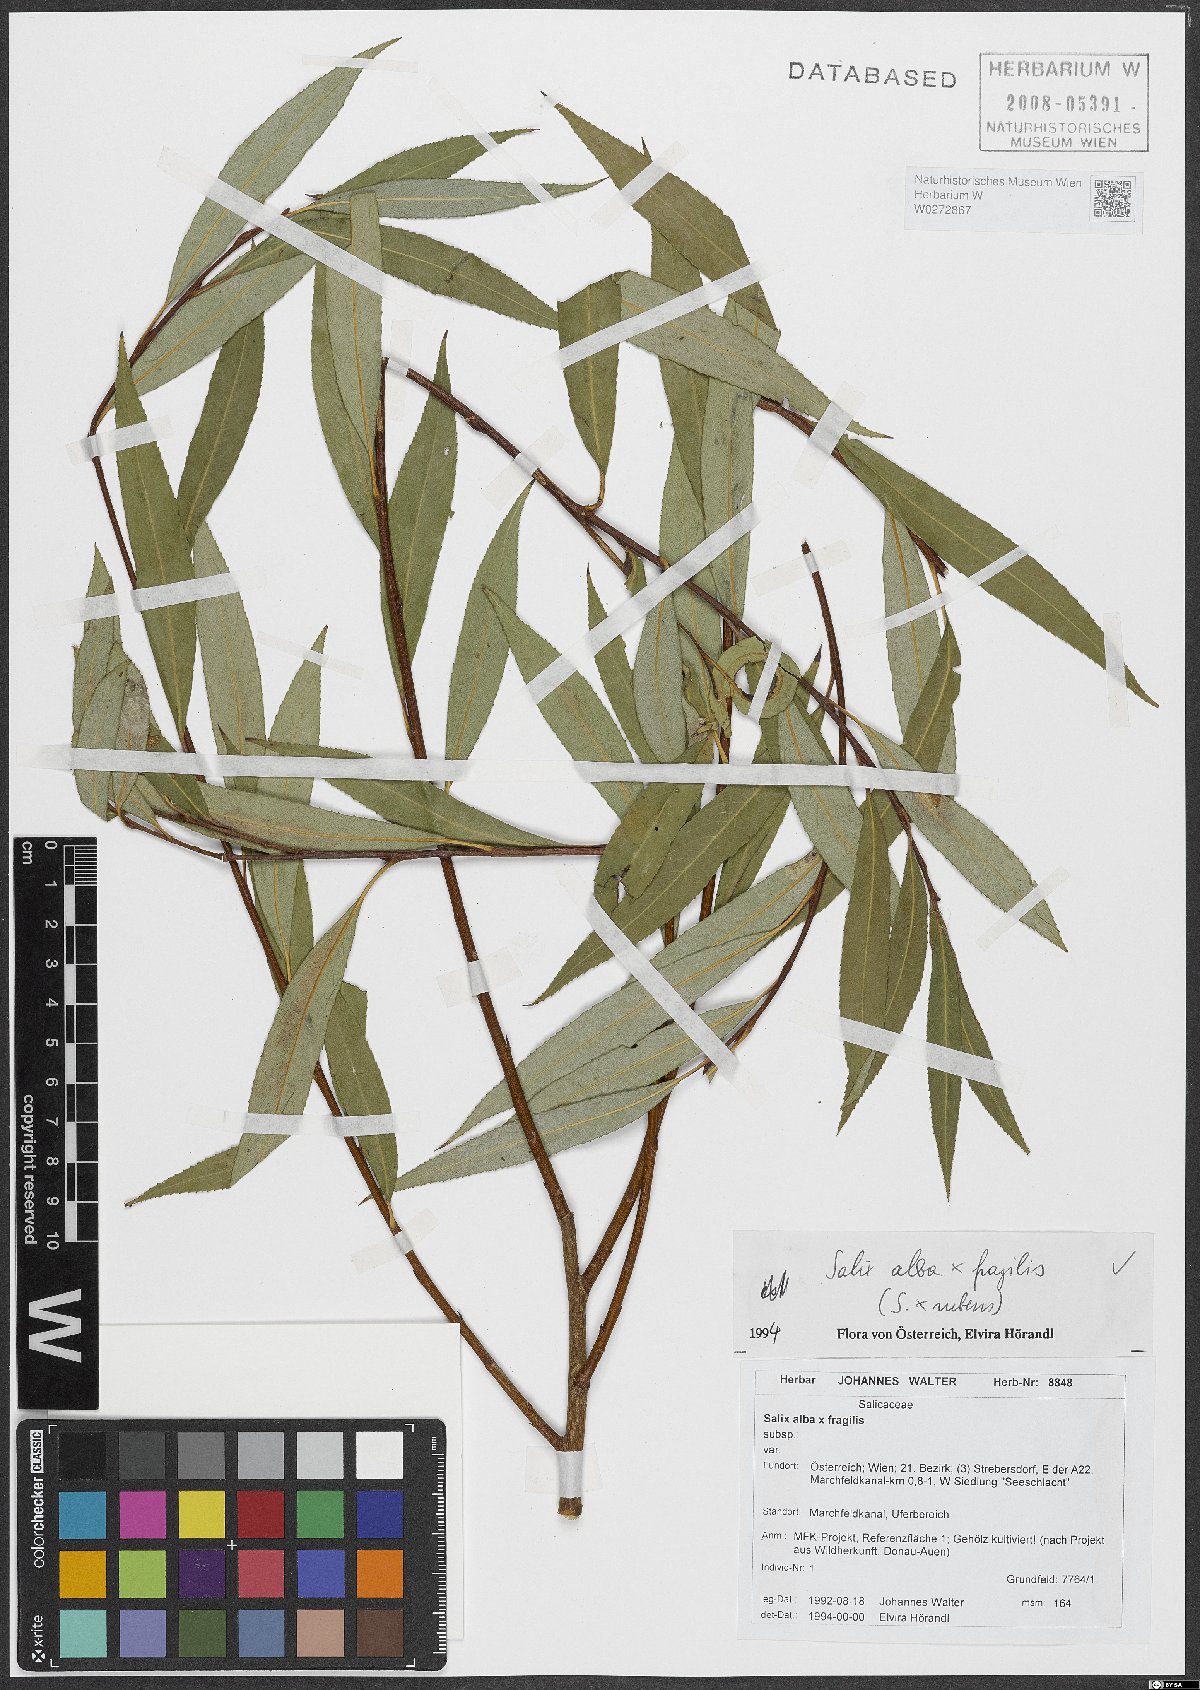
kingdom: Plantae
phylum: Tracheophyta
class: Magnoliopsida
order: Malpighiales
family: Salicaceae
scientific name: Salicaceae
